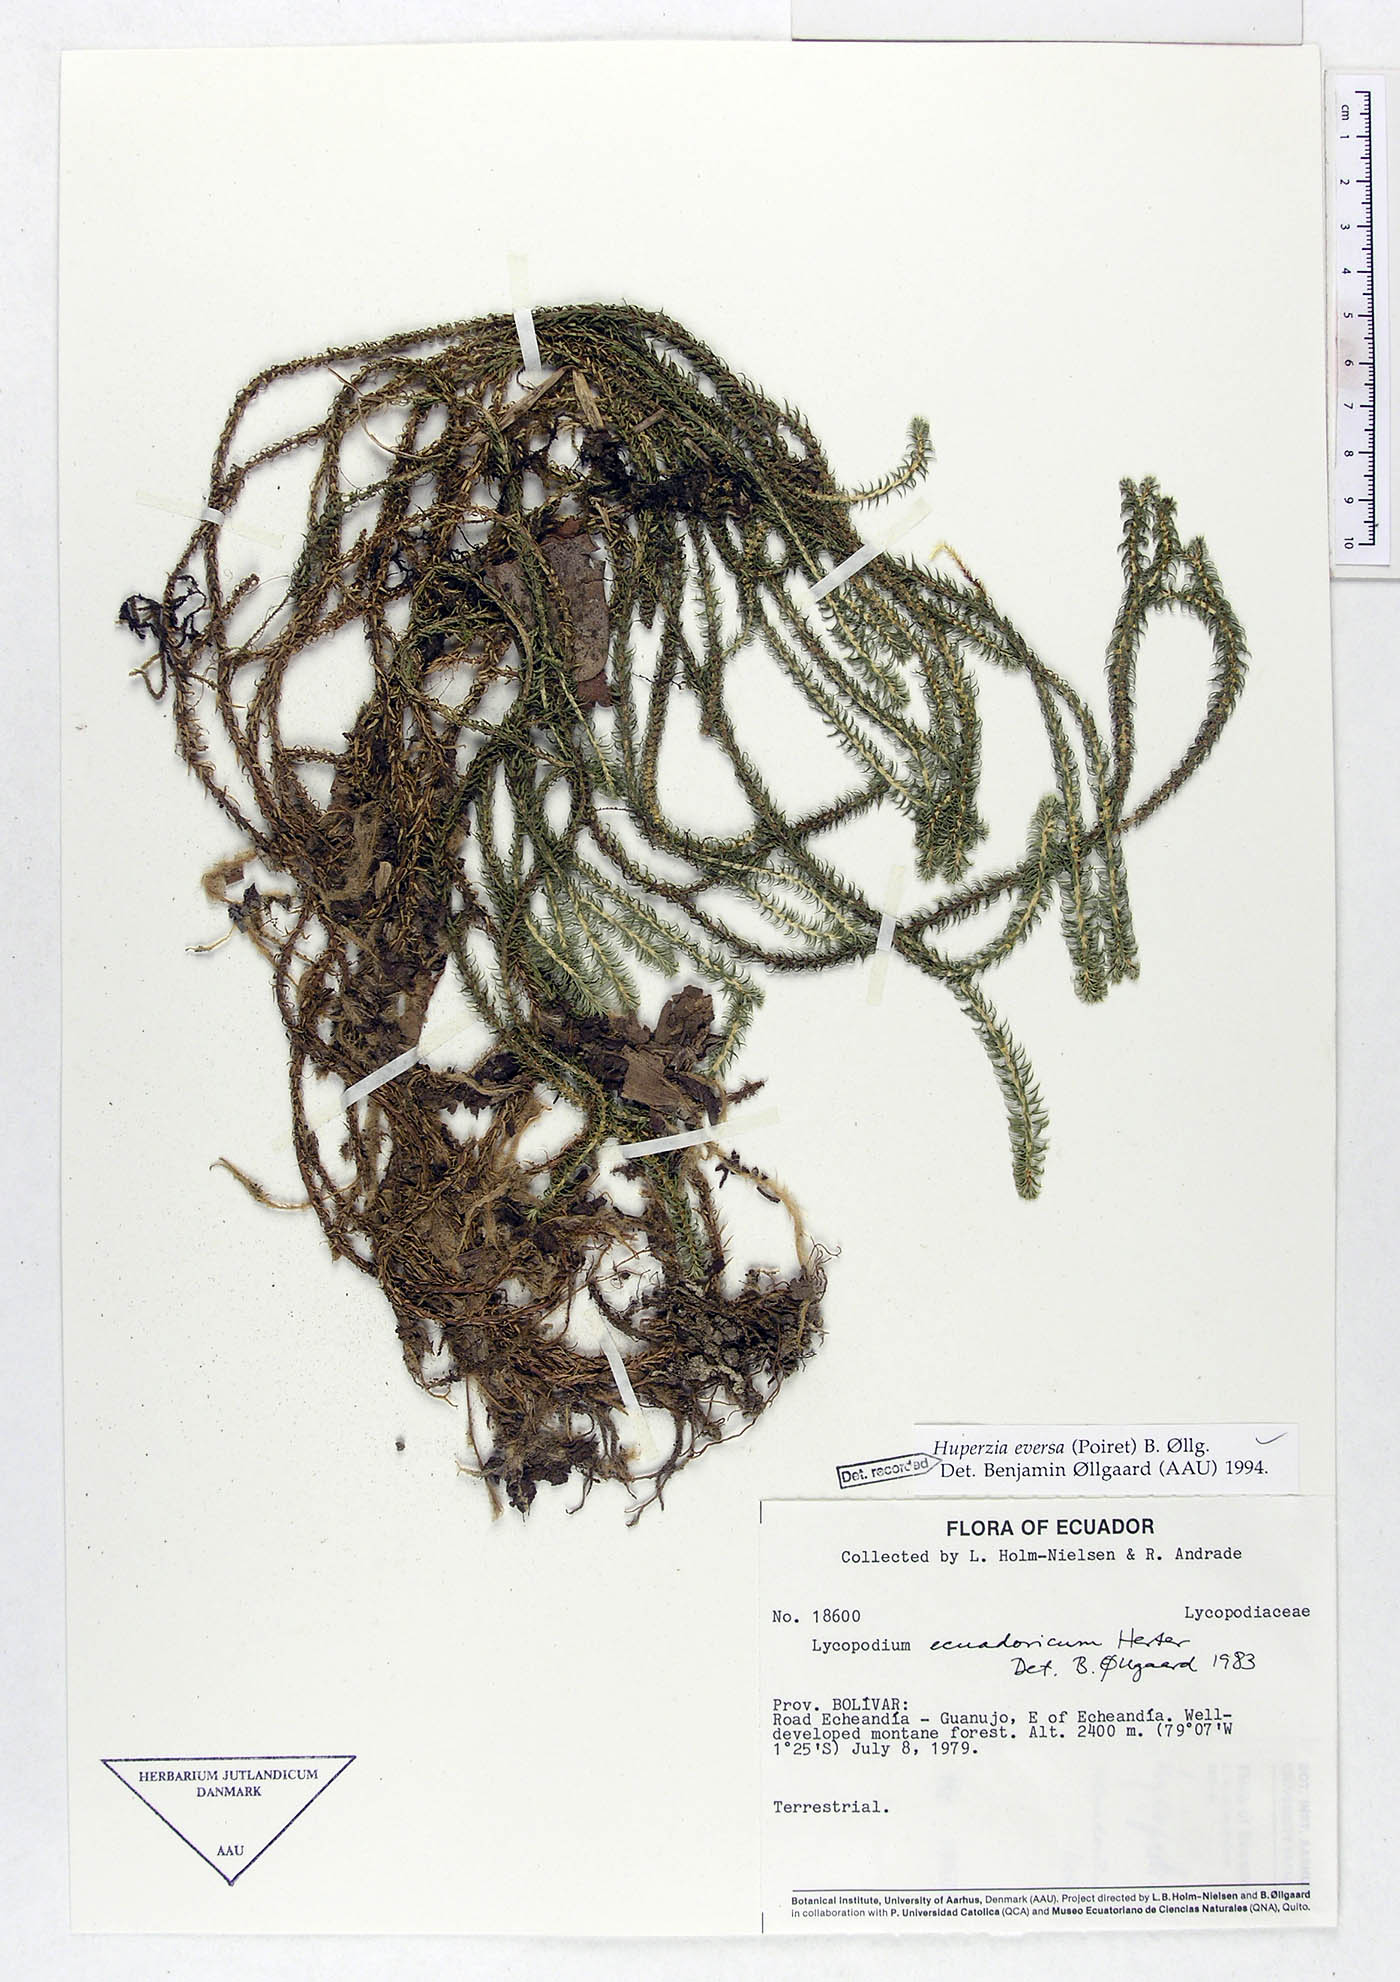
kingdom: Plantae
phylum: Tracheophyta
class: Lycopodiopsida
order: Lycopodiales
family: Lycopodiaceae
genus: Phlegmariurus
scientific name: Phlegmariurus eversus
